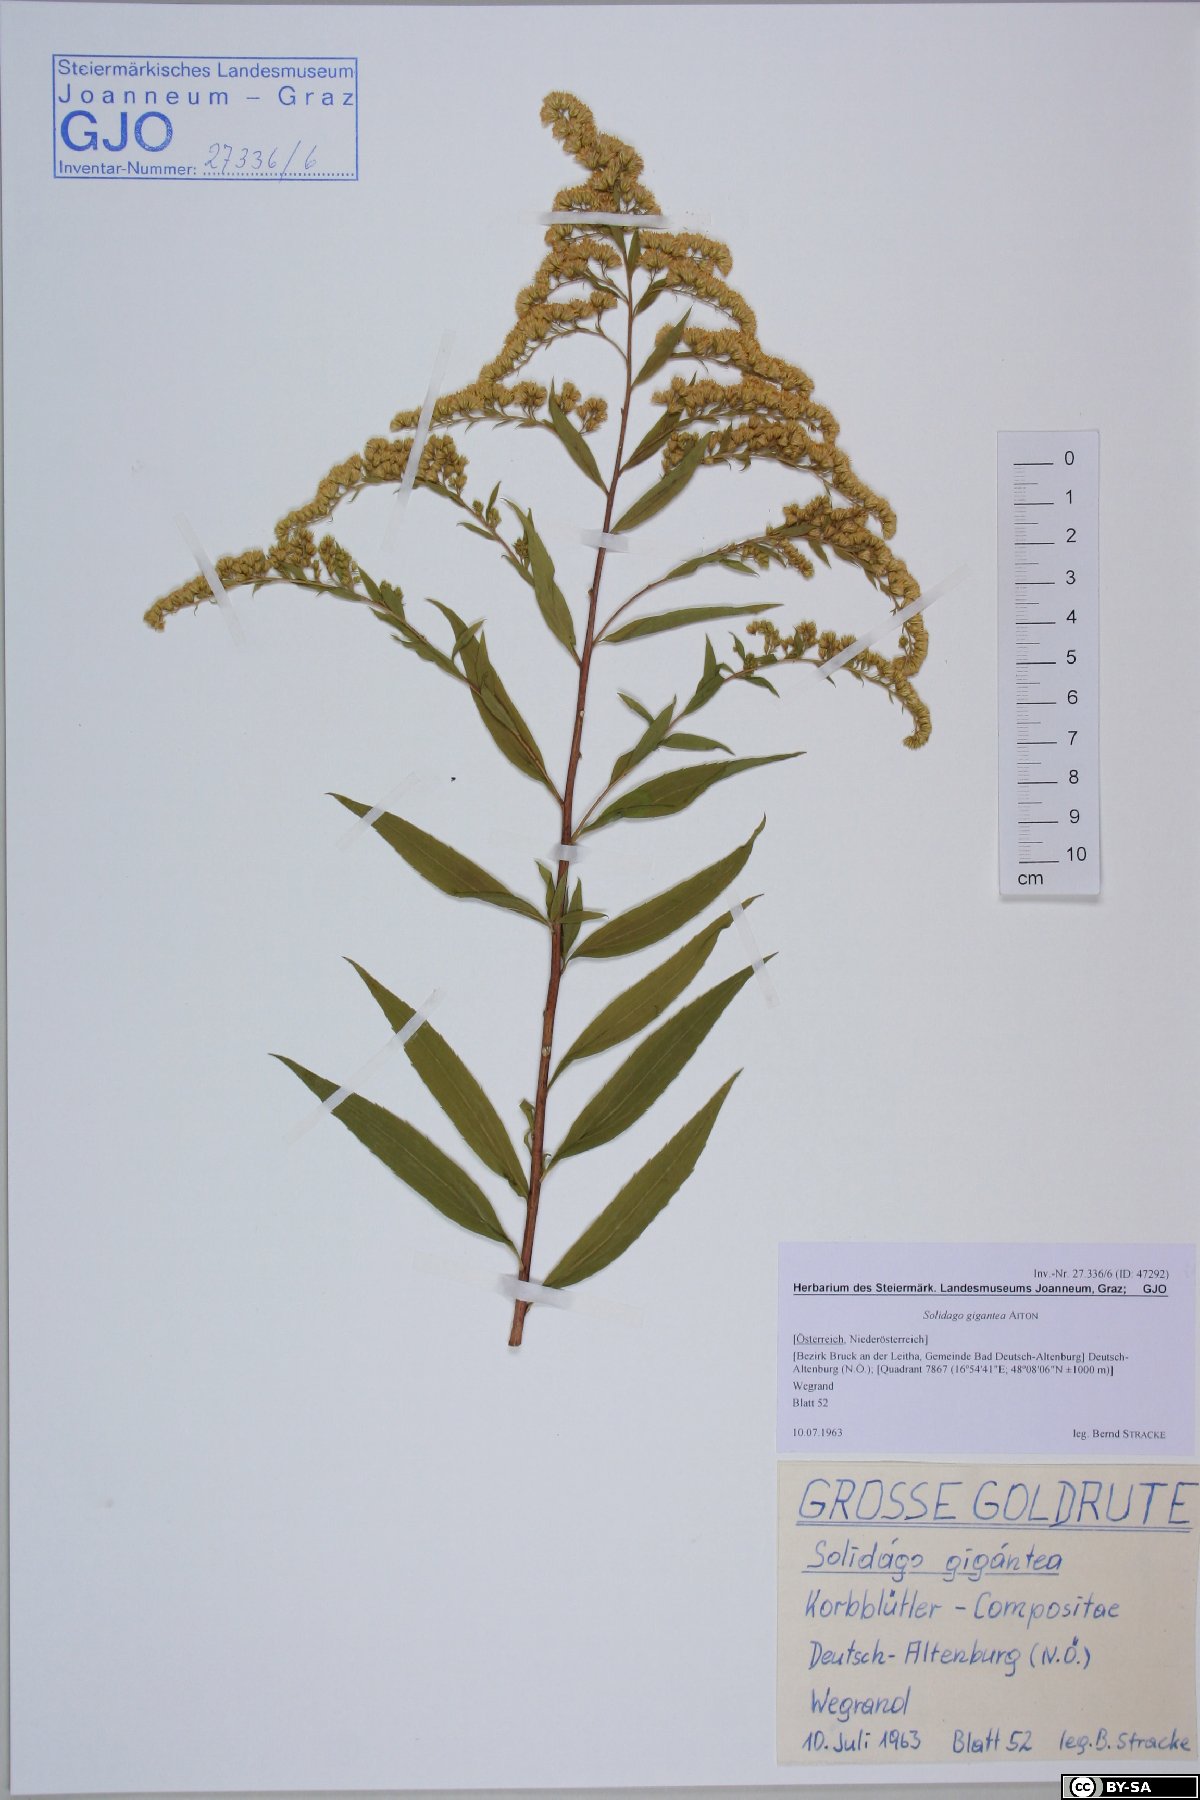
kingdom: Plantae
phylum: Tracheophyta
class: Magnoliopsida
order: Asterales
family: Asteraceae
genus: Solidago
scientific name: Solidago gigantea
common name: Giant goldenrod
